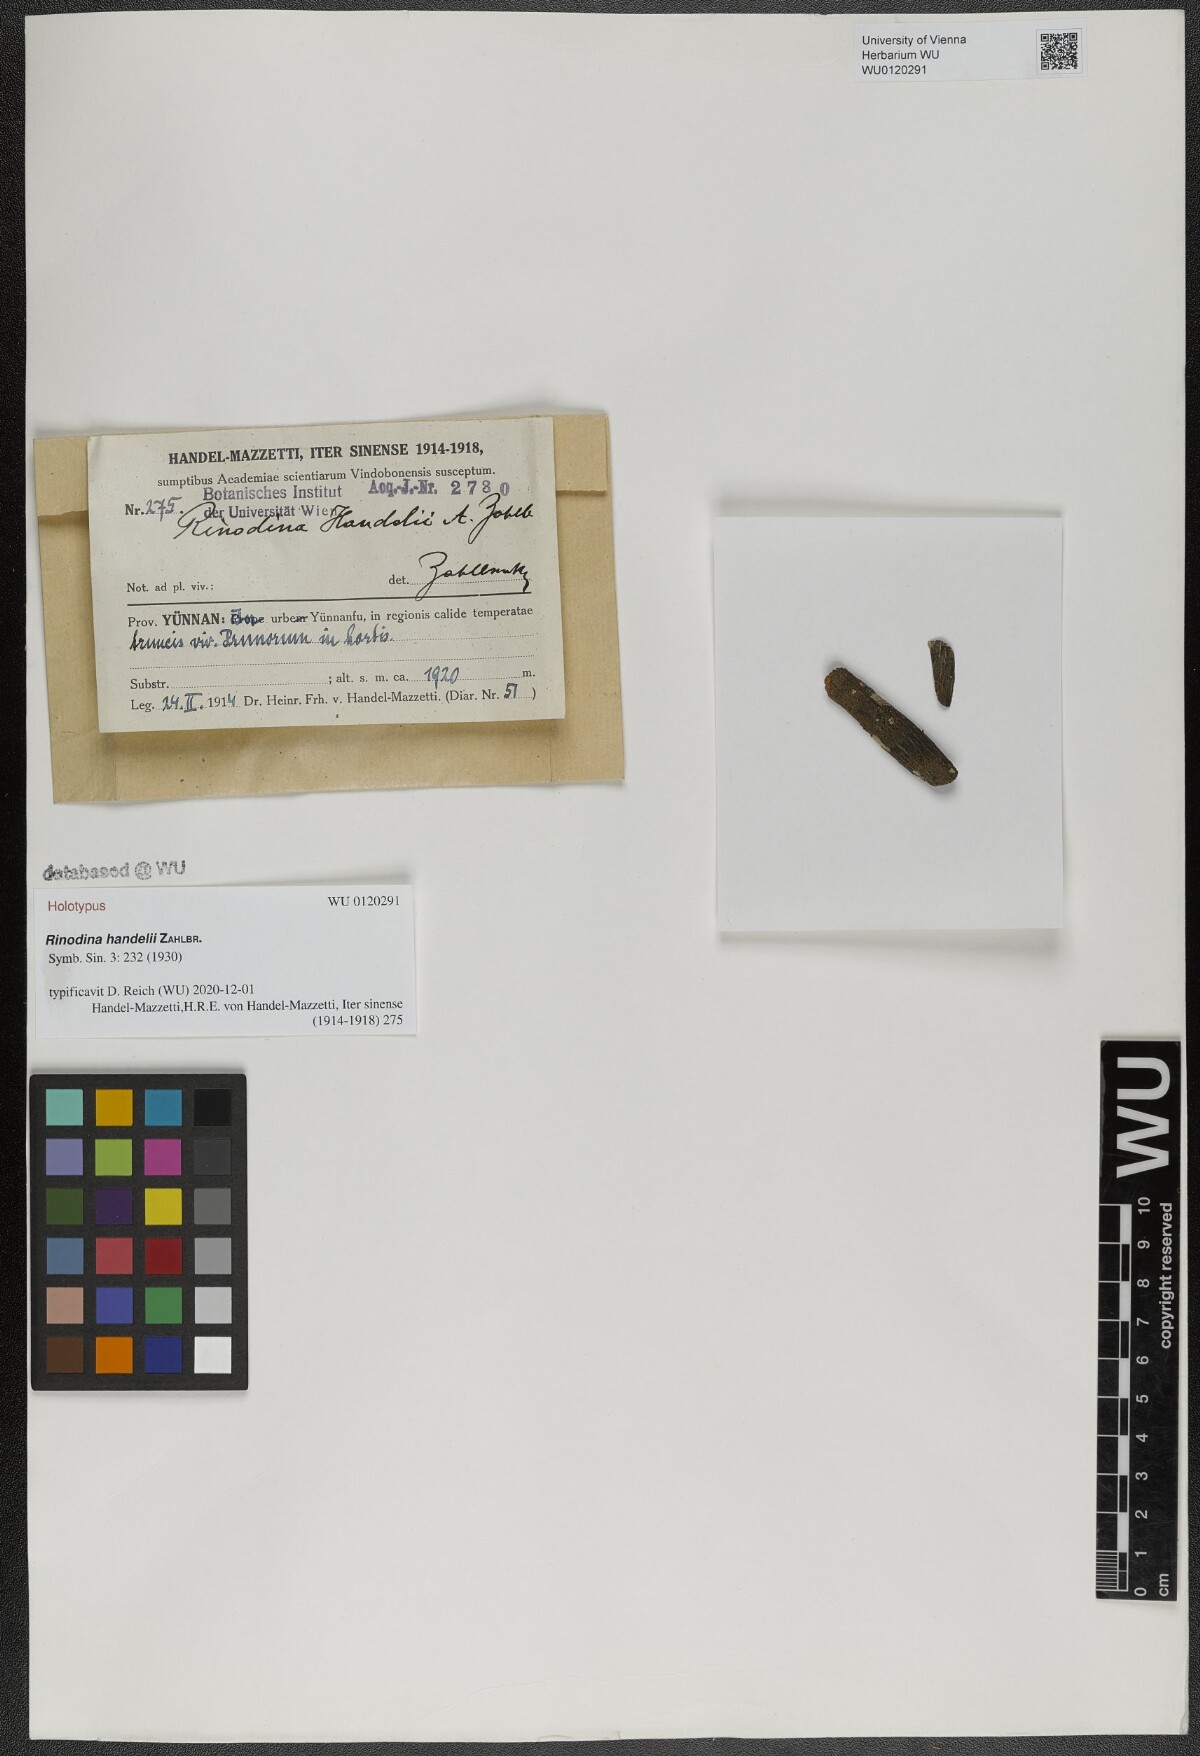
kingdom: Fungi
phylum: Ascomycota
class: Lecanoromycetes
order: Caliciales
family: Physciaceae
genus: Rinodina
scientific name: Rinodina
